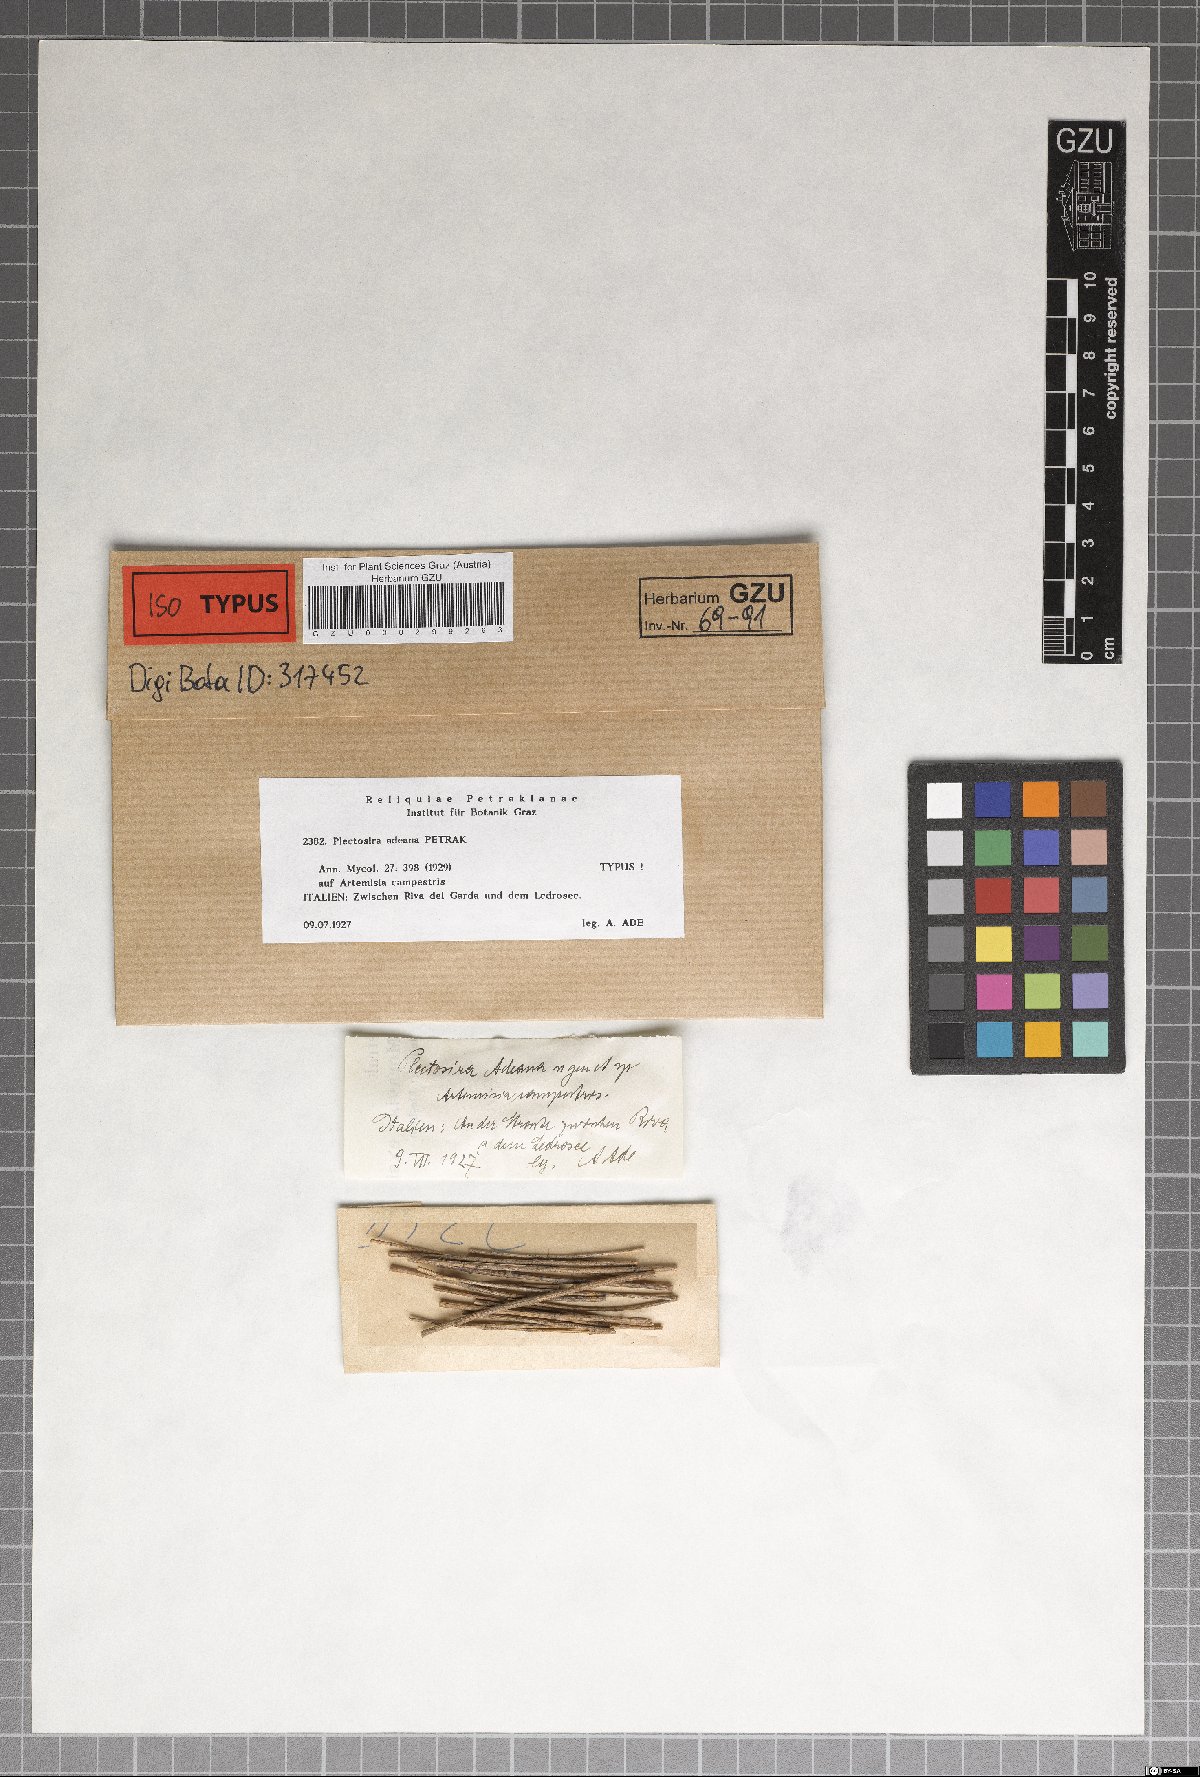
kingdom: Fungi
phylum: Ascomycota
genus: Plectosira
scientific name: Plectosira adeana
